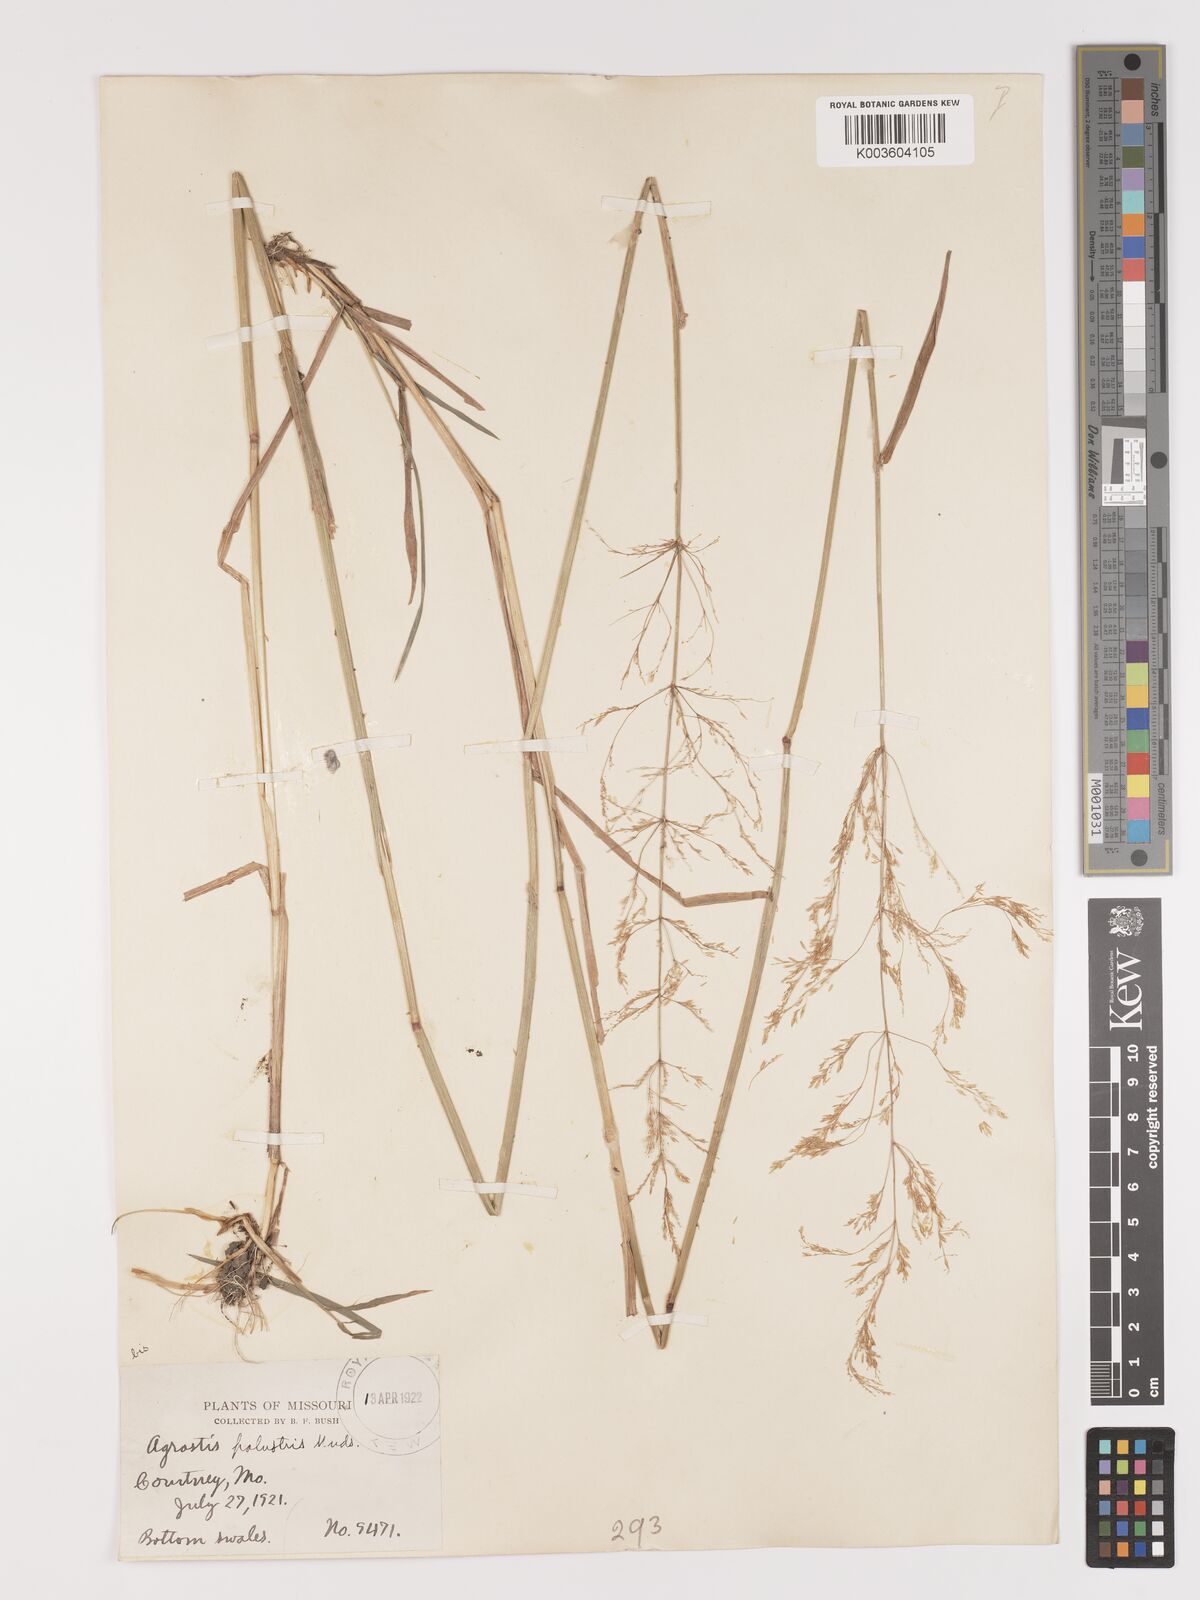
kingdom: Plantae
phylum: Tracheophyta
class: Liliopsida
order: Poales
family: Poaceae
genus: Agrostis
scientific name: Agrostis gigantea
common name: Black bent
